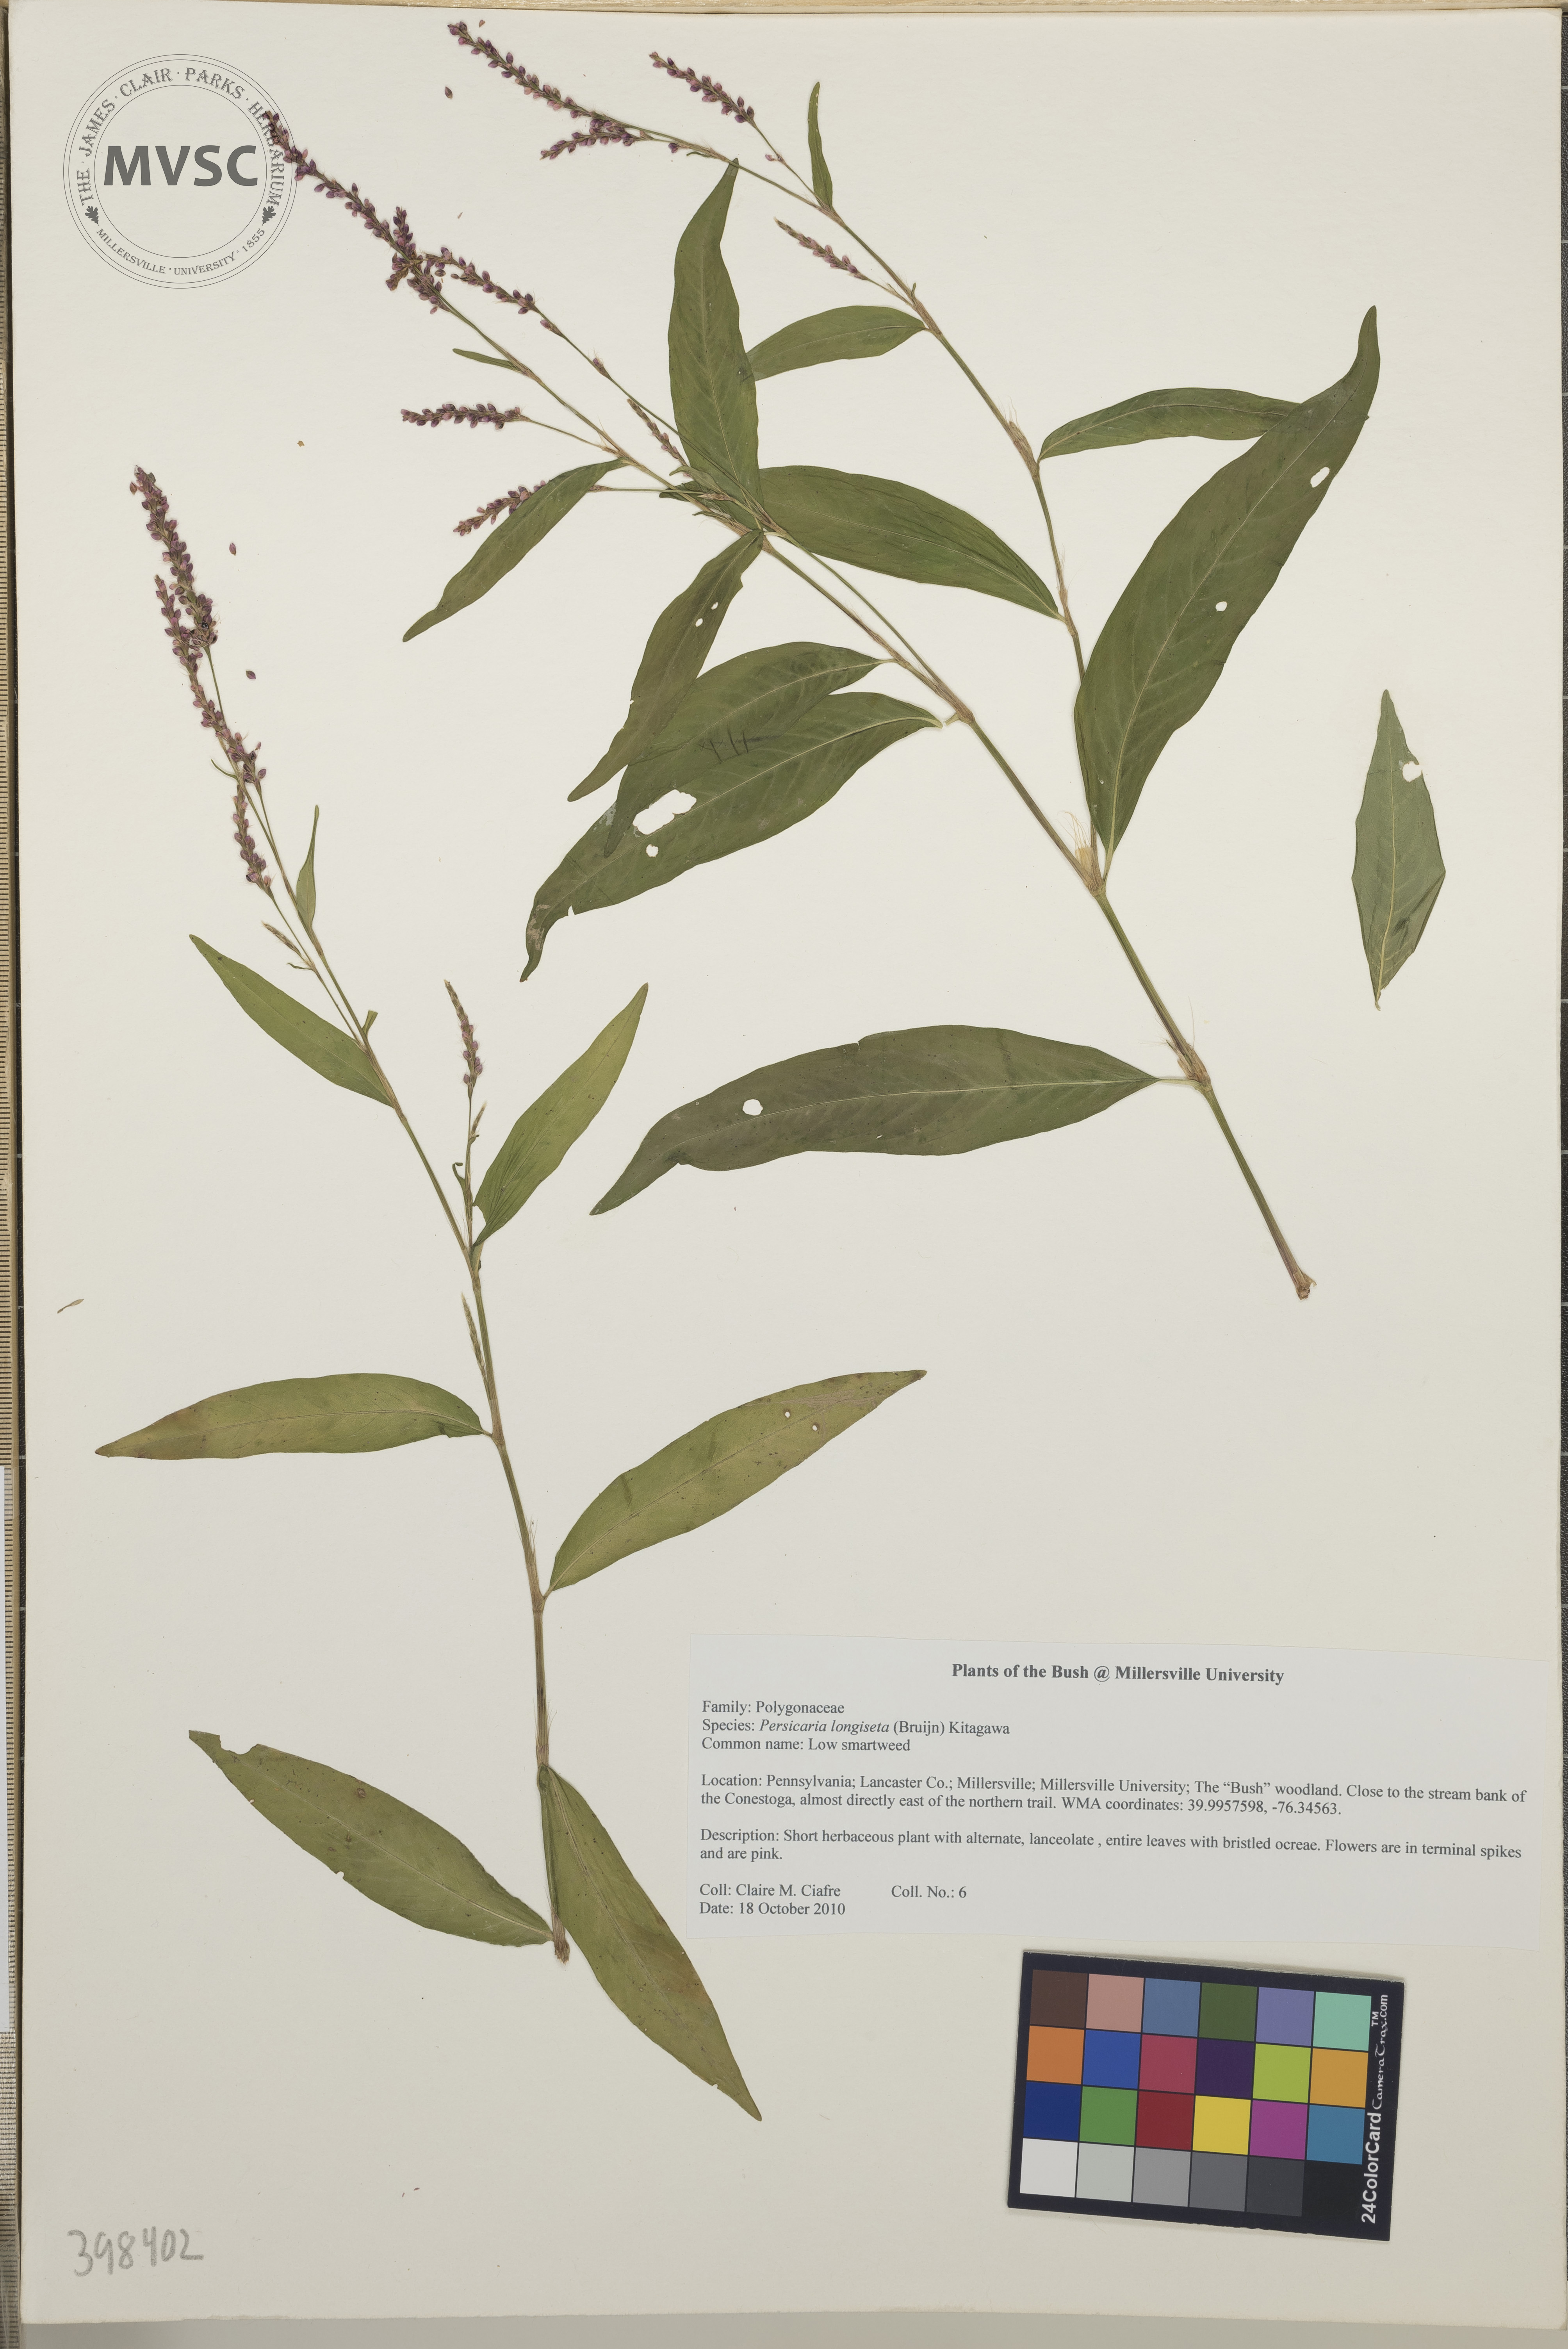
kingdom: Plantae
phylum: Tracheophyta
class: Magnoliopsida
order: Caryophyllales
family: Polygonaceae
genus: Persicaria
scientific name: Persicaria longiseta
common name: Low smartweed
